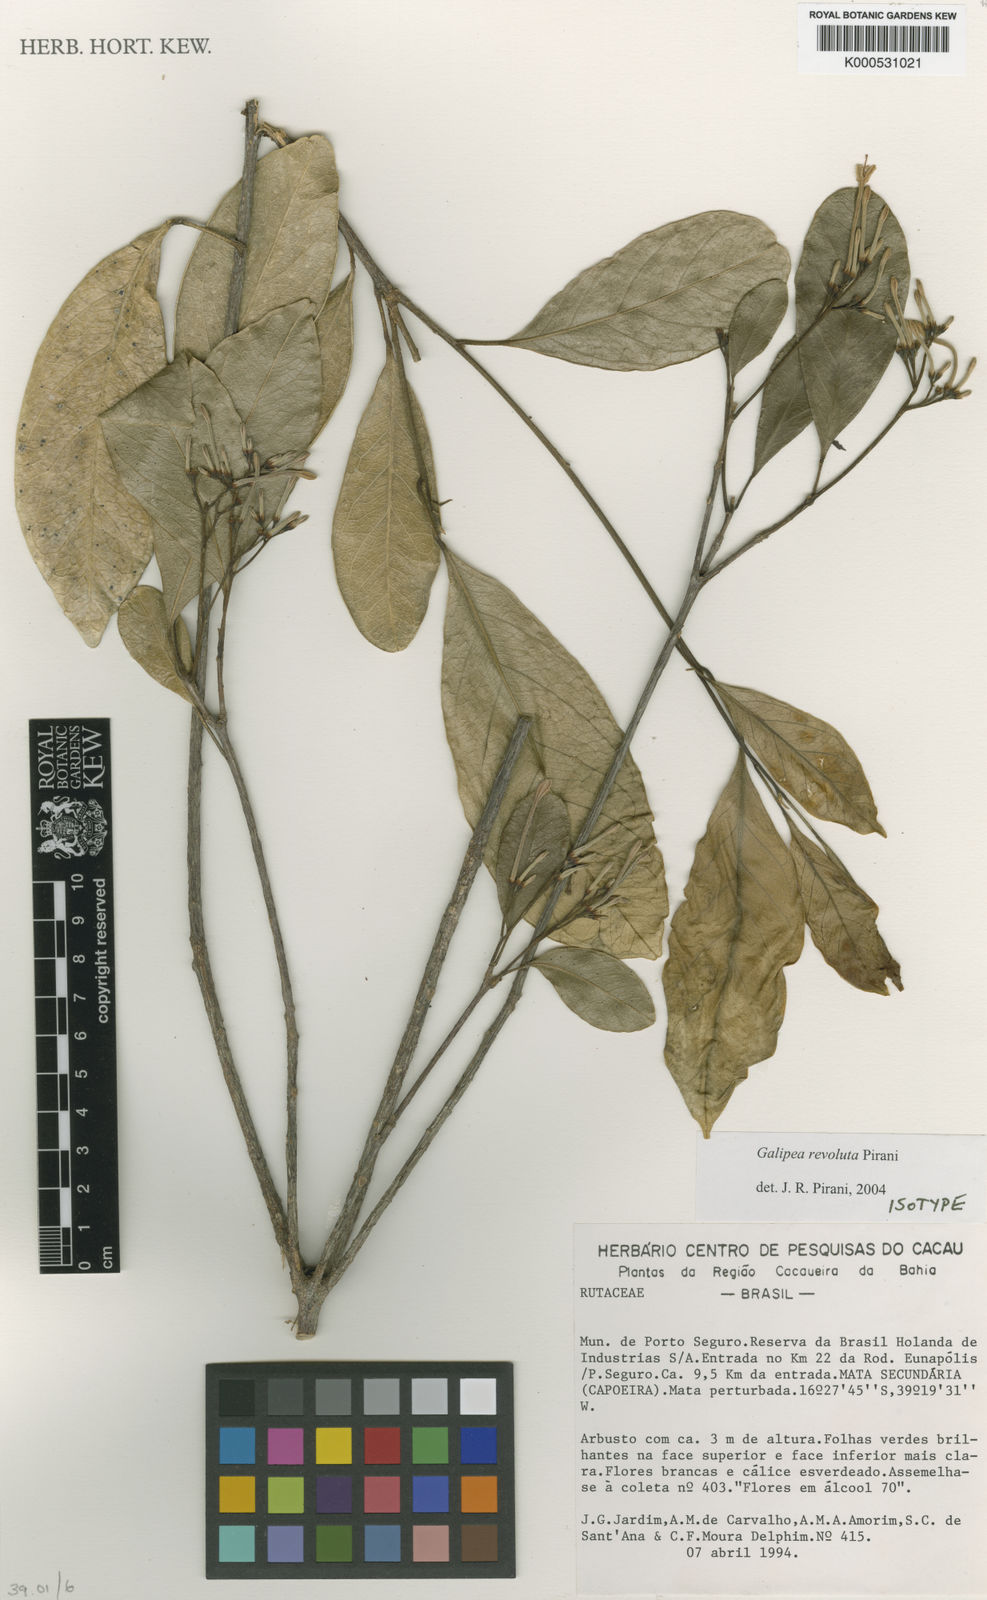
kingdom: Plantae
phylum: Tracheophyta
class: Magnoliopsida
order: Sapindales
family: Rutaceae
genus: Galipea
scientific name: Galipea revoluta
